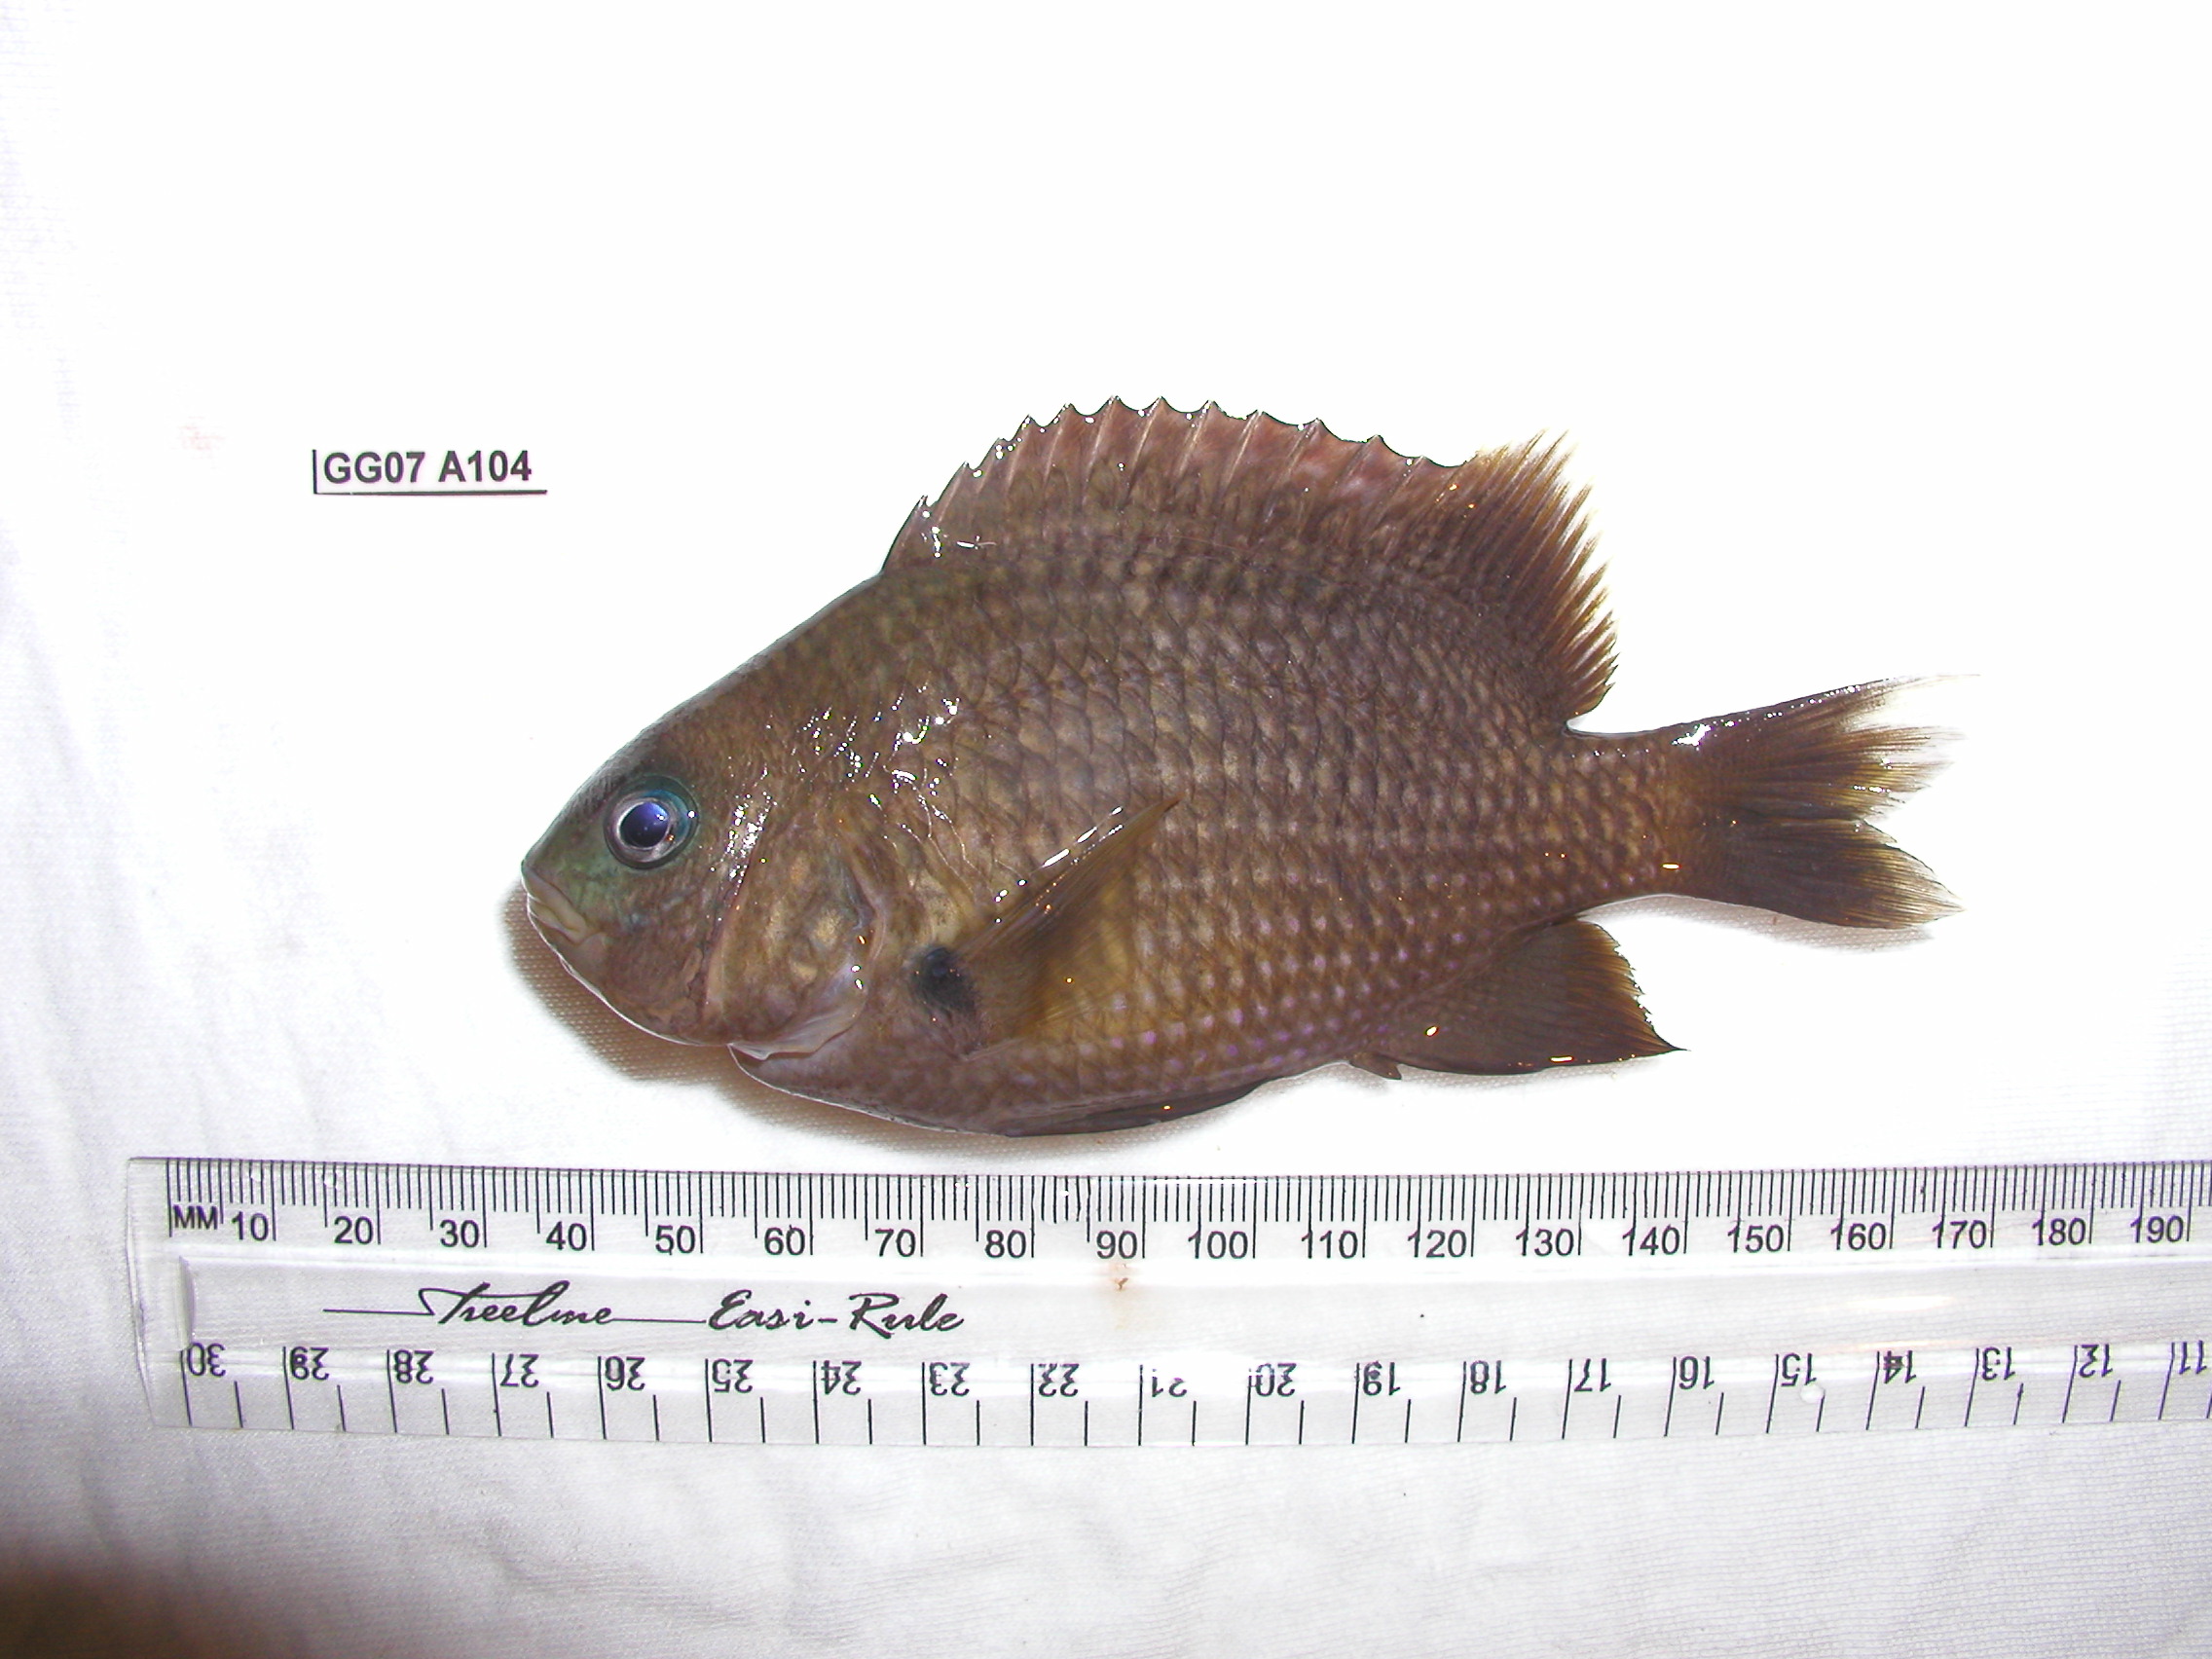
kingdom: Animalia
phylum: Chordata
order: Perciformes
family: Pomacentridae
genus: Plectroglyphidodon
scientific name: Plectroglyphidodon leucozonus
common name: White-band damsel
